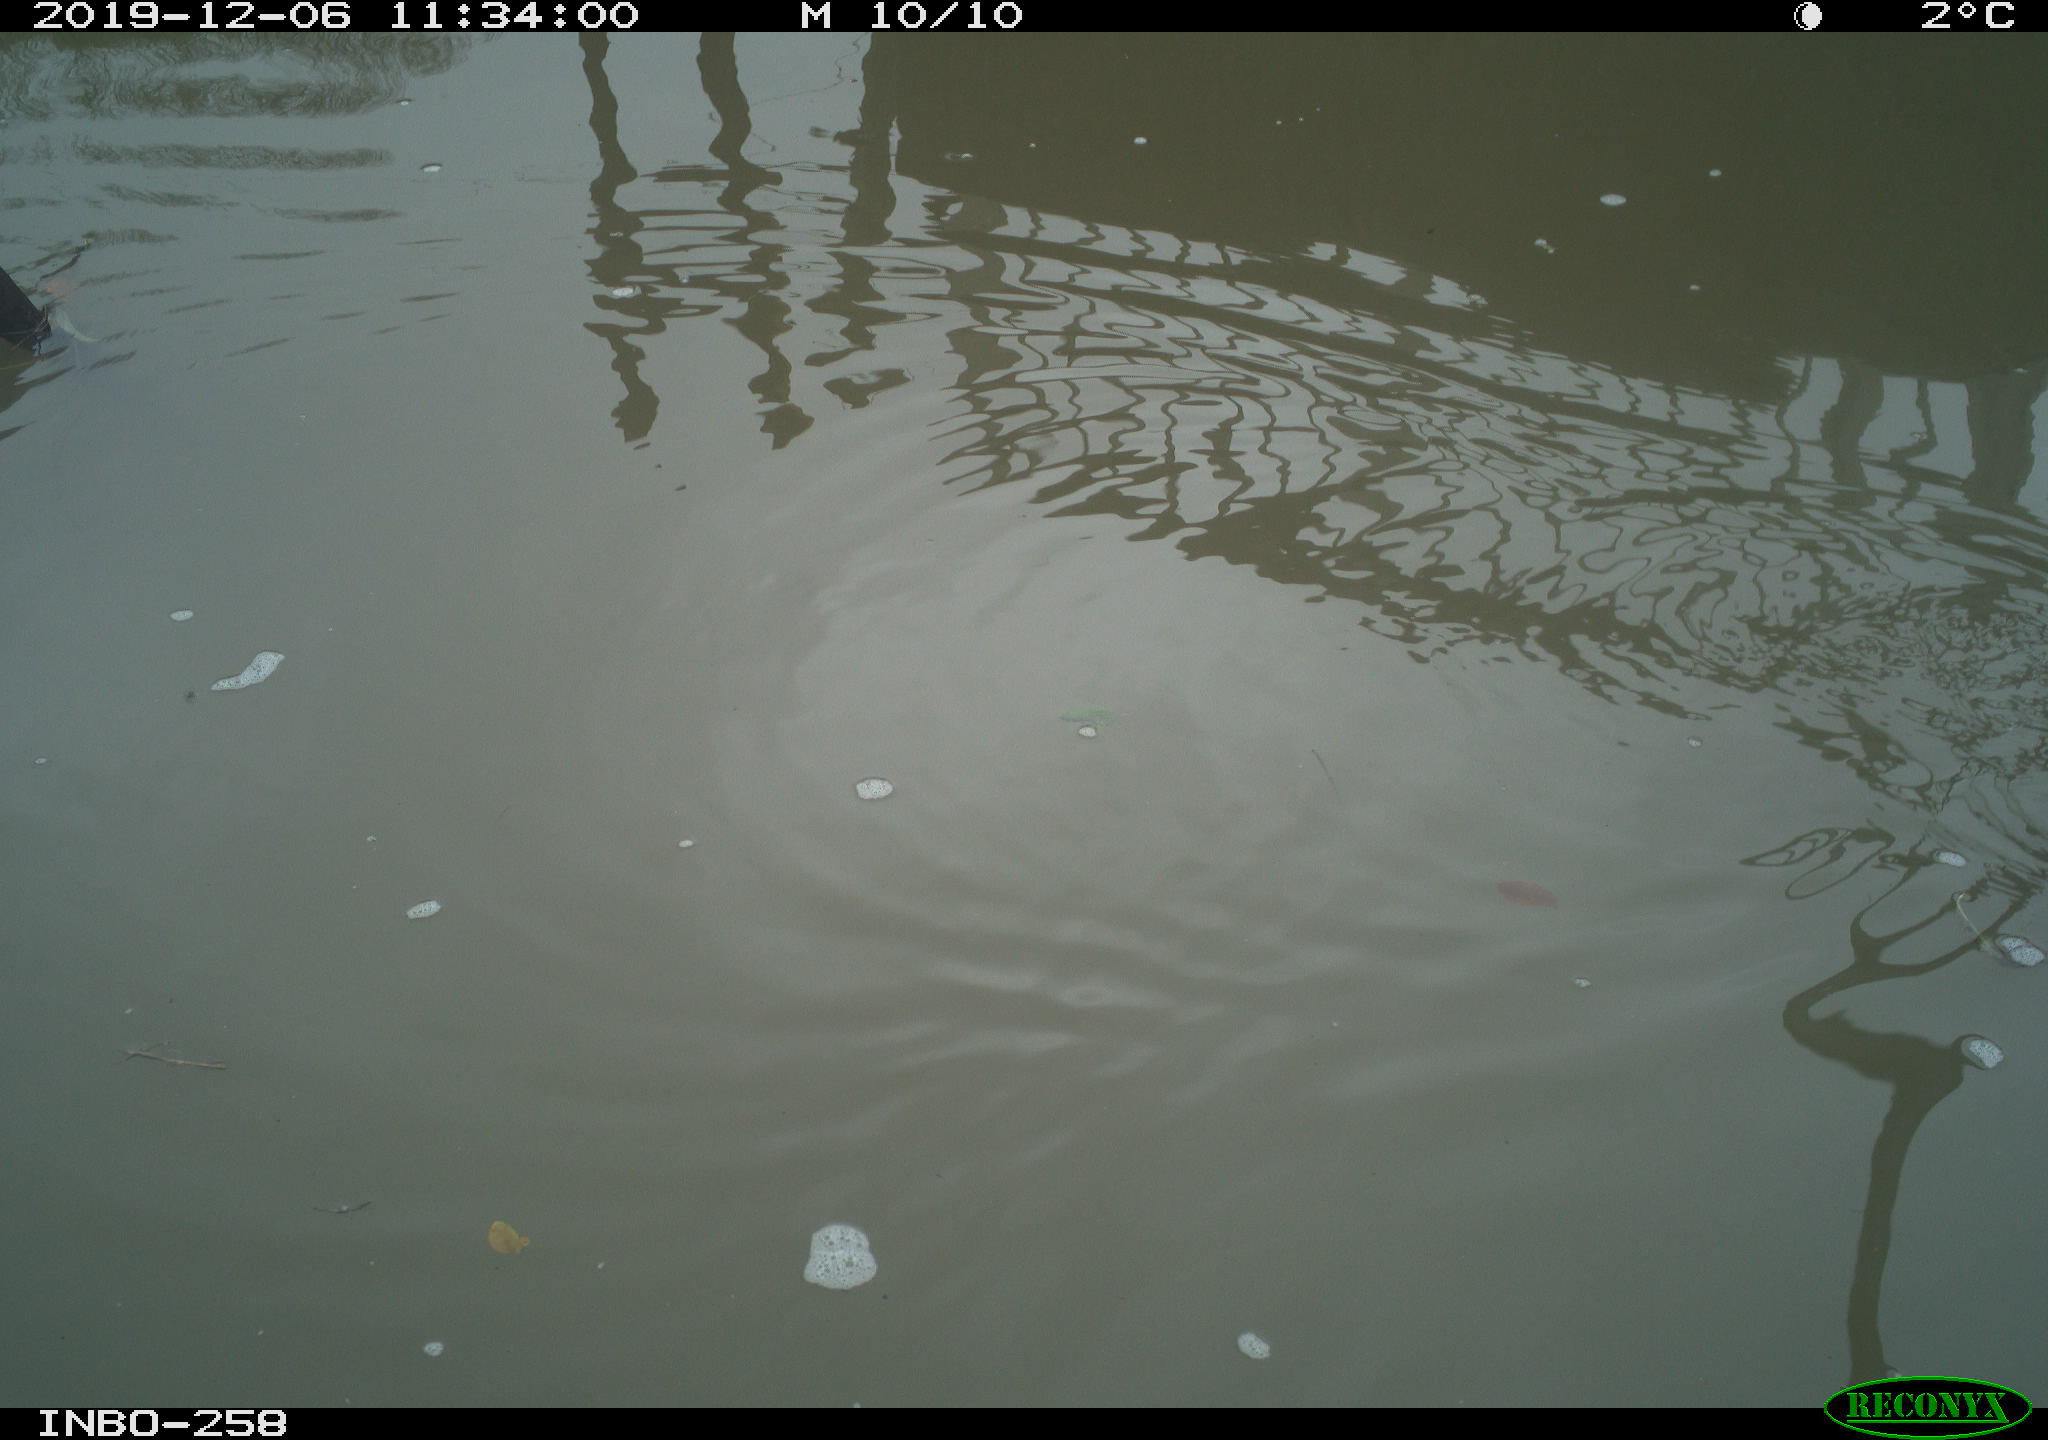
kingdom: Animalia
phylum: Chordata
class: Aves
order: Gruiformes
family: Rallidae
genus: Gallinula
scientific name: Gallinula chloropus
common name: Common moorhen
